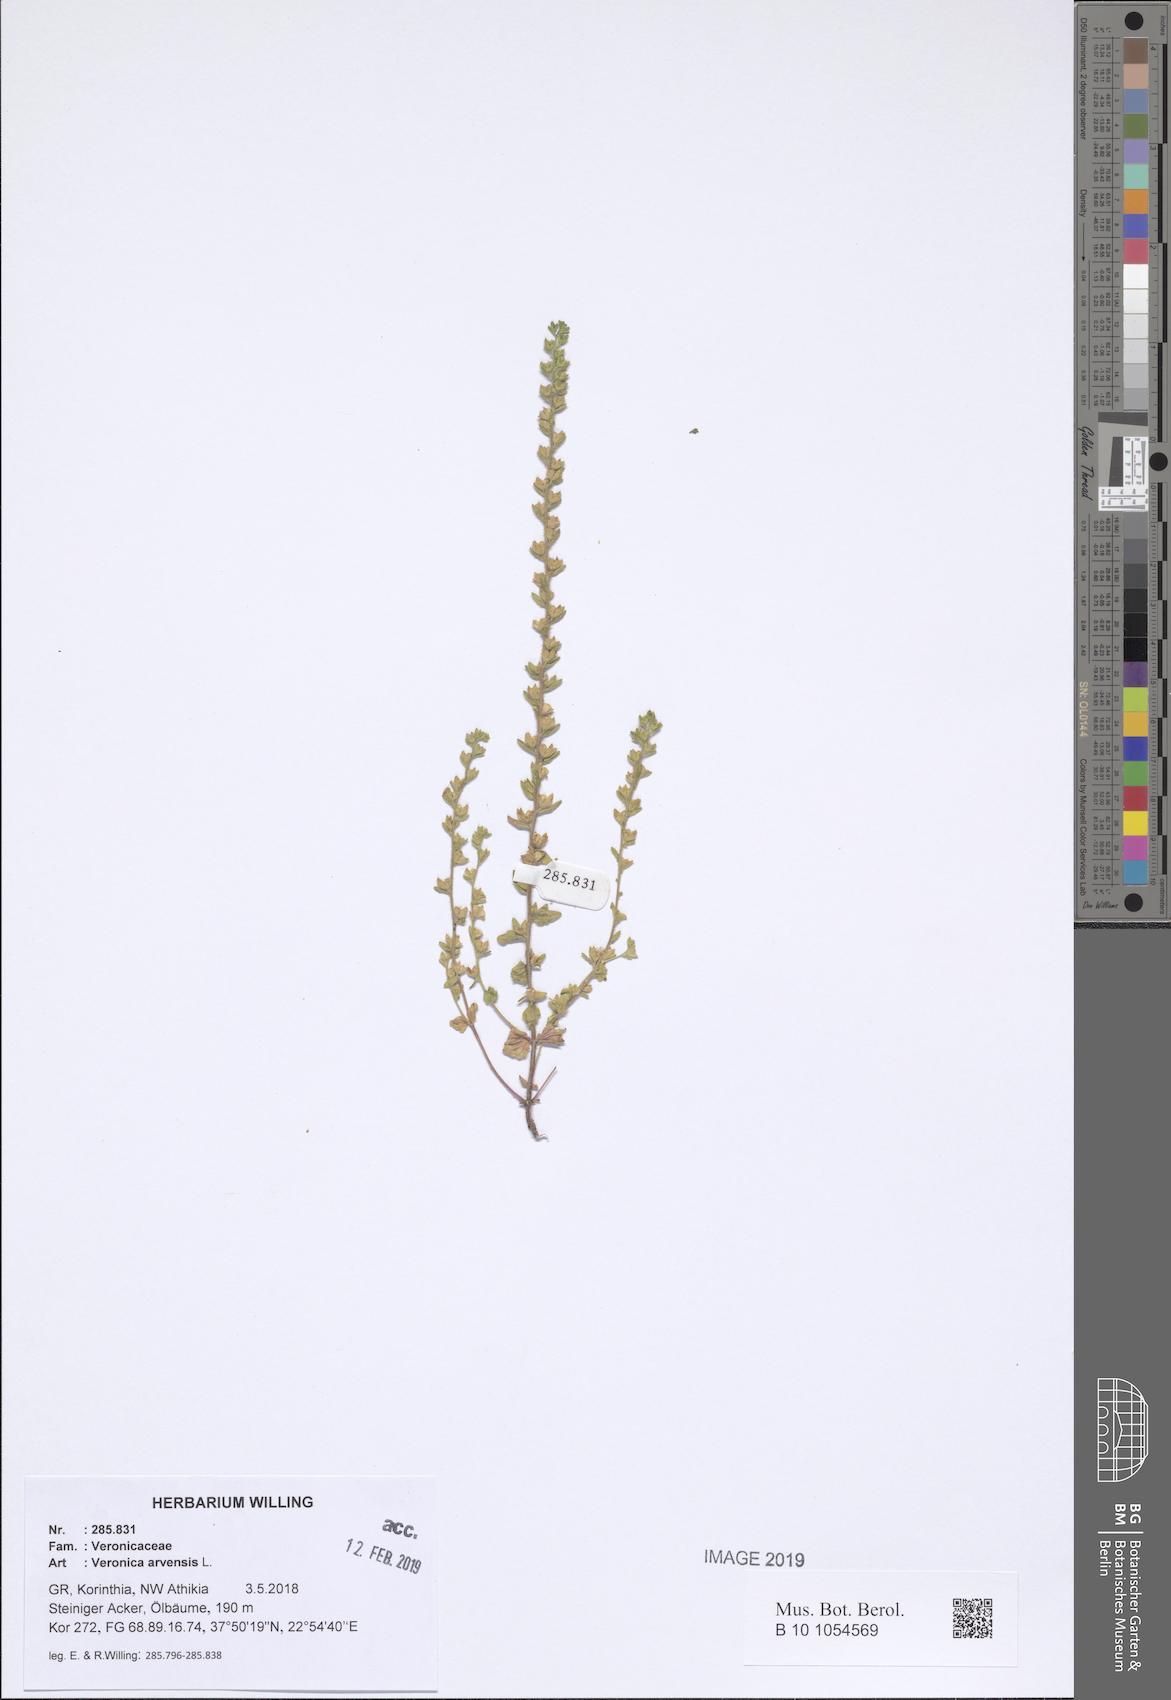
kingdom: Plantae
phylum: Tracheophyta
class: Magnoliopsida
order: Lamiales
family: Plantaginaceae
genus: Veronica
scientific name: Veronica arvensis
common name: Corn speedwell
